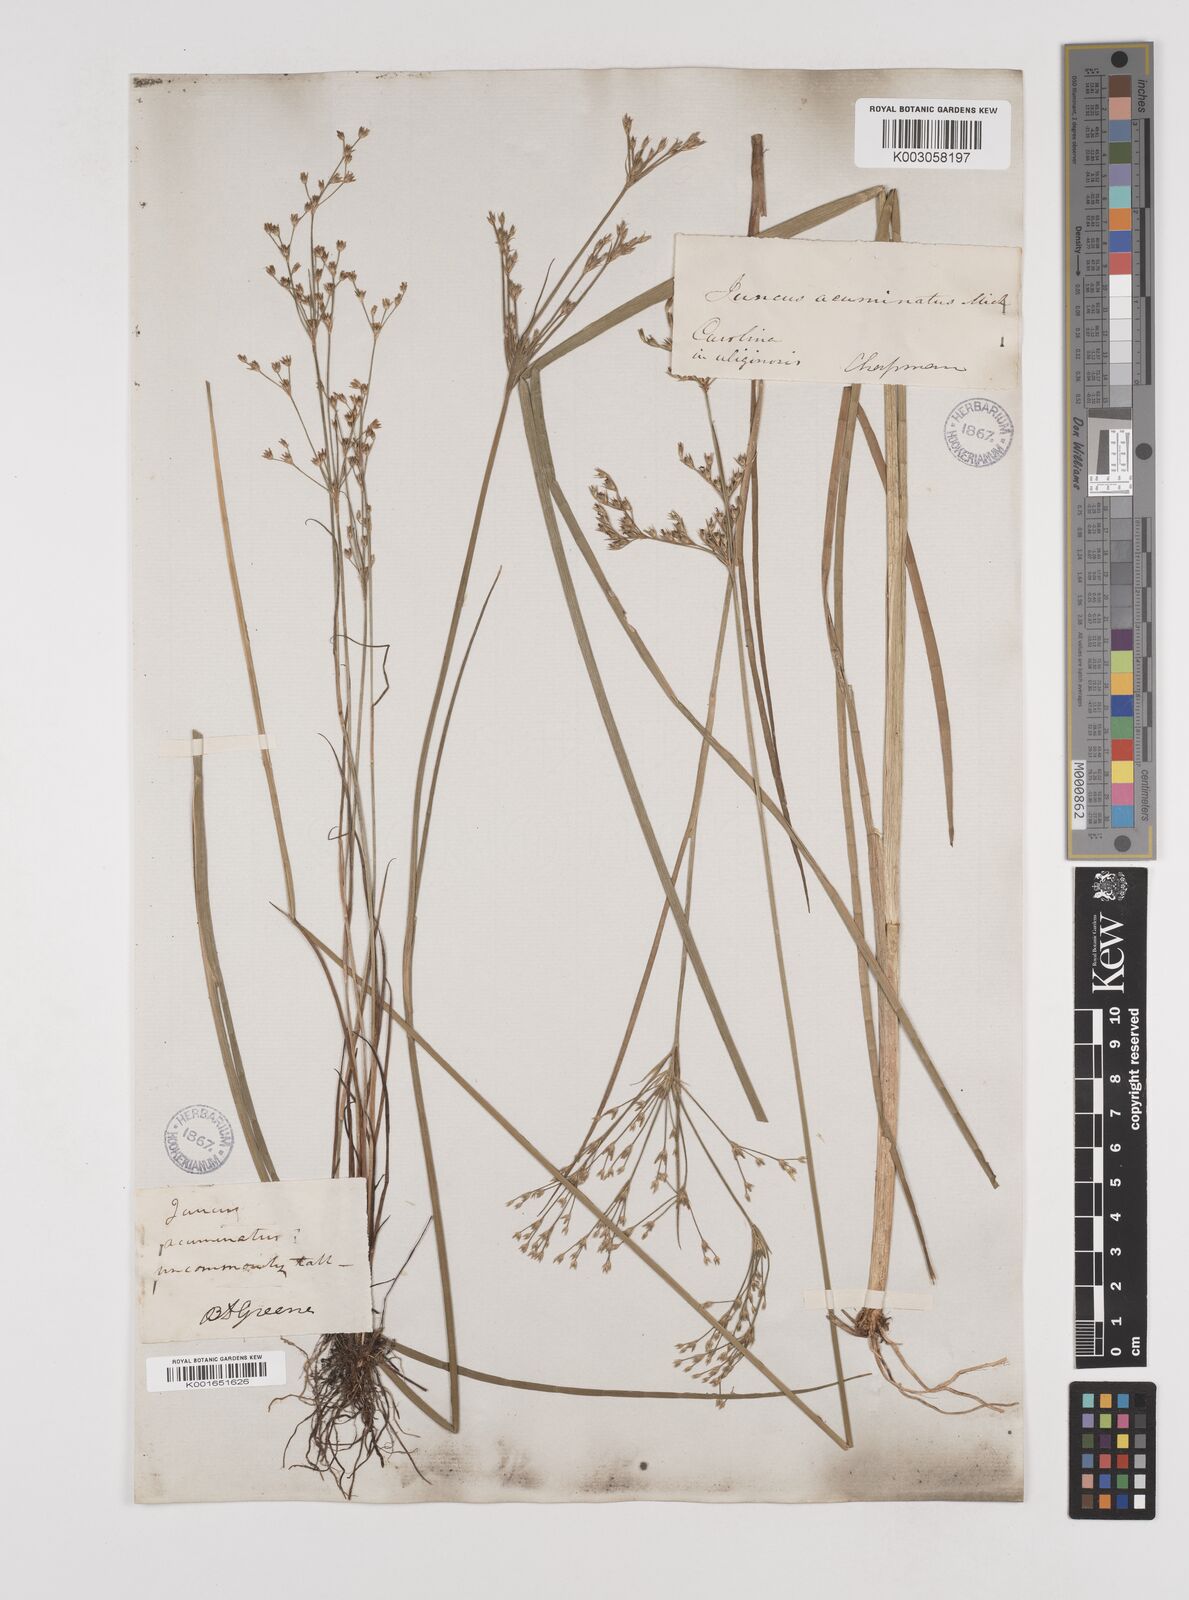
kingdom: Plantae
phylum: Tracheophyta
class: Liliopsida
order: Poales
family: Juncaceae
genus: Juncus
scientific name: Juncus
